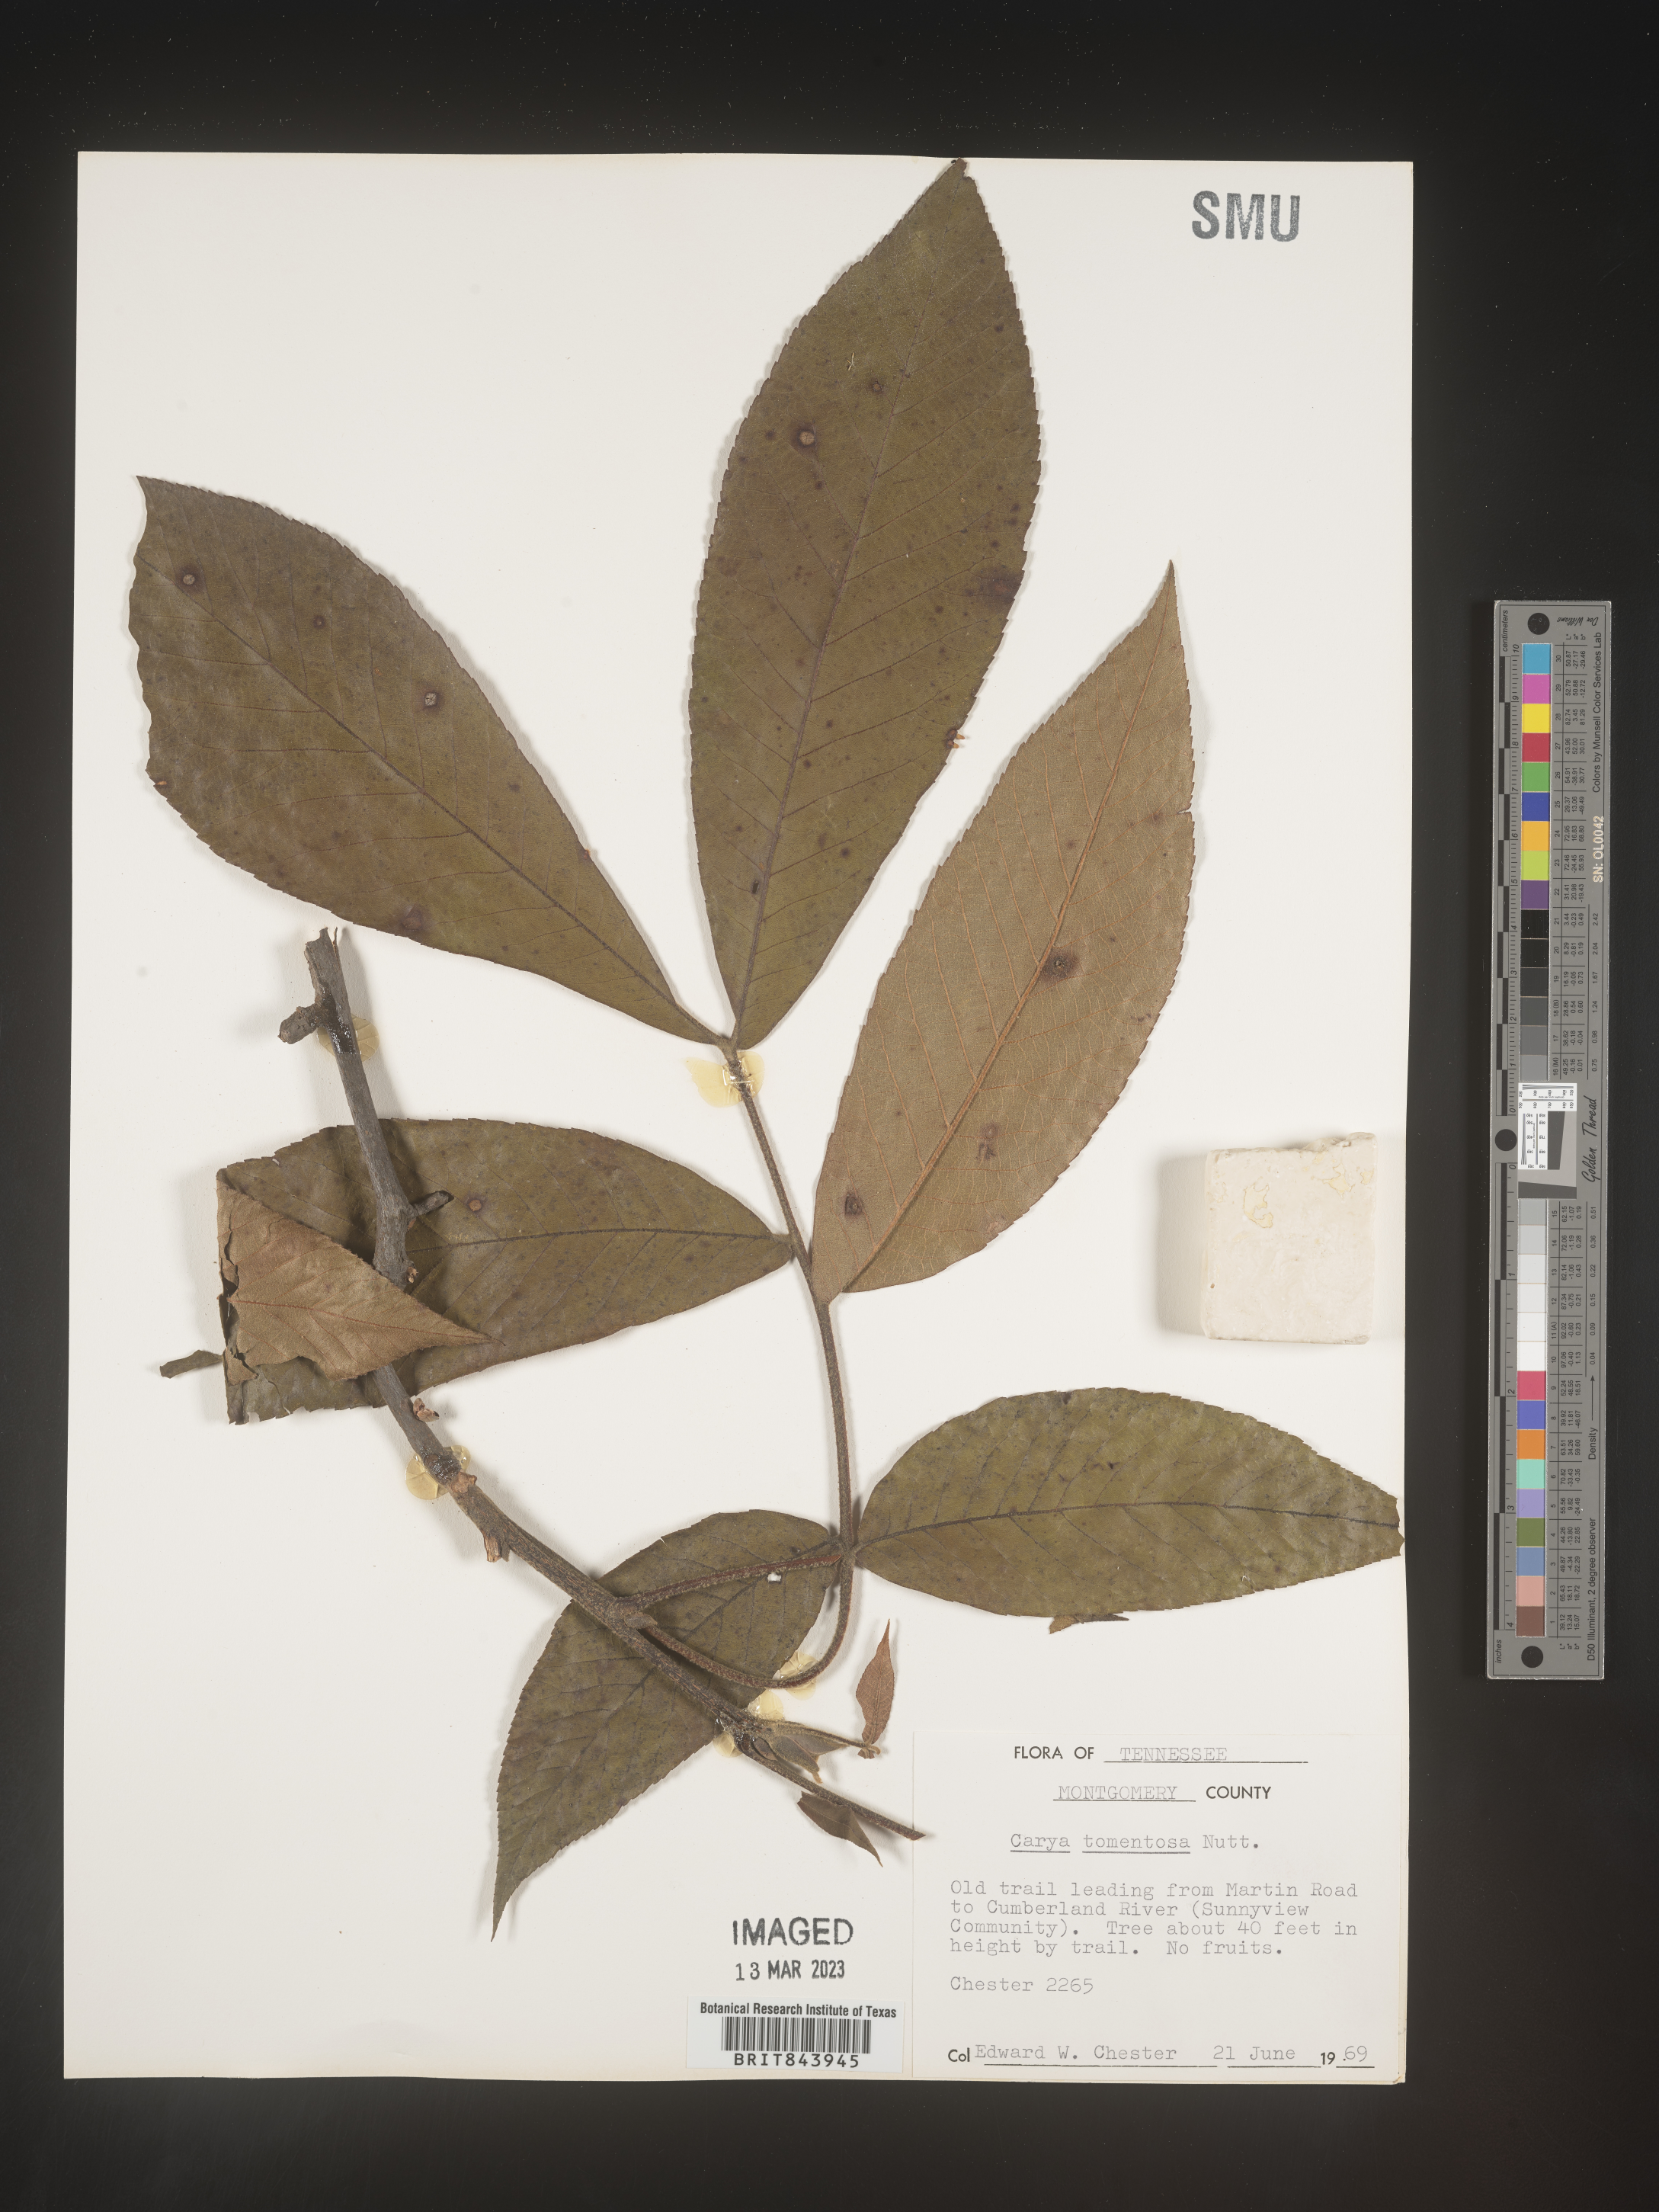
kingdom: Plantae
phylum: Tracheophyta
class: Magnoliopsida
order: Fagales
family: Juglandaceae
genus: Carya
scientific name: Carya alba
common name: Mockernut hickory
